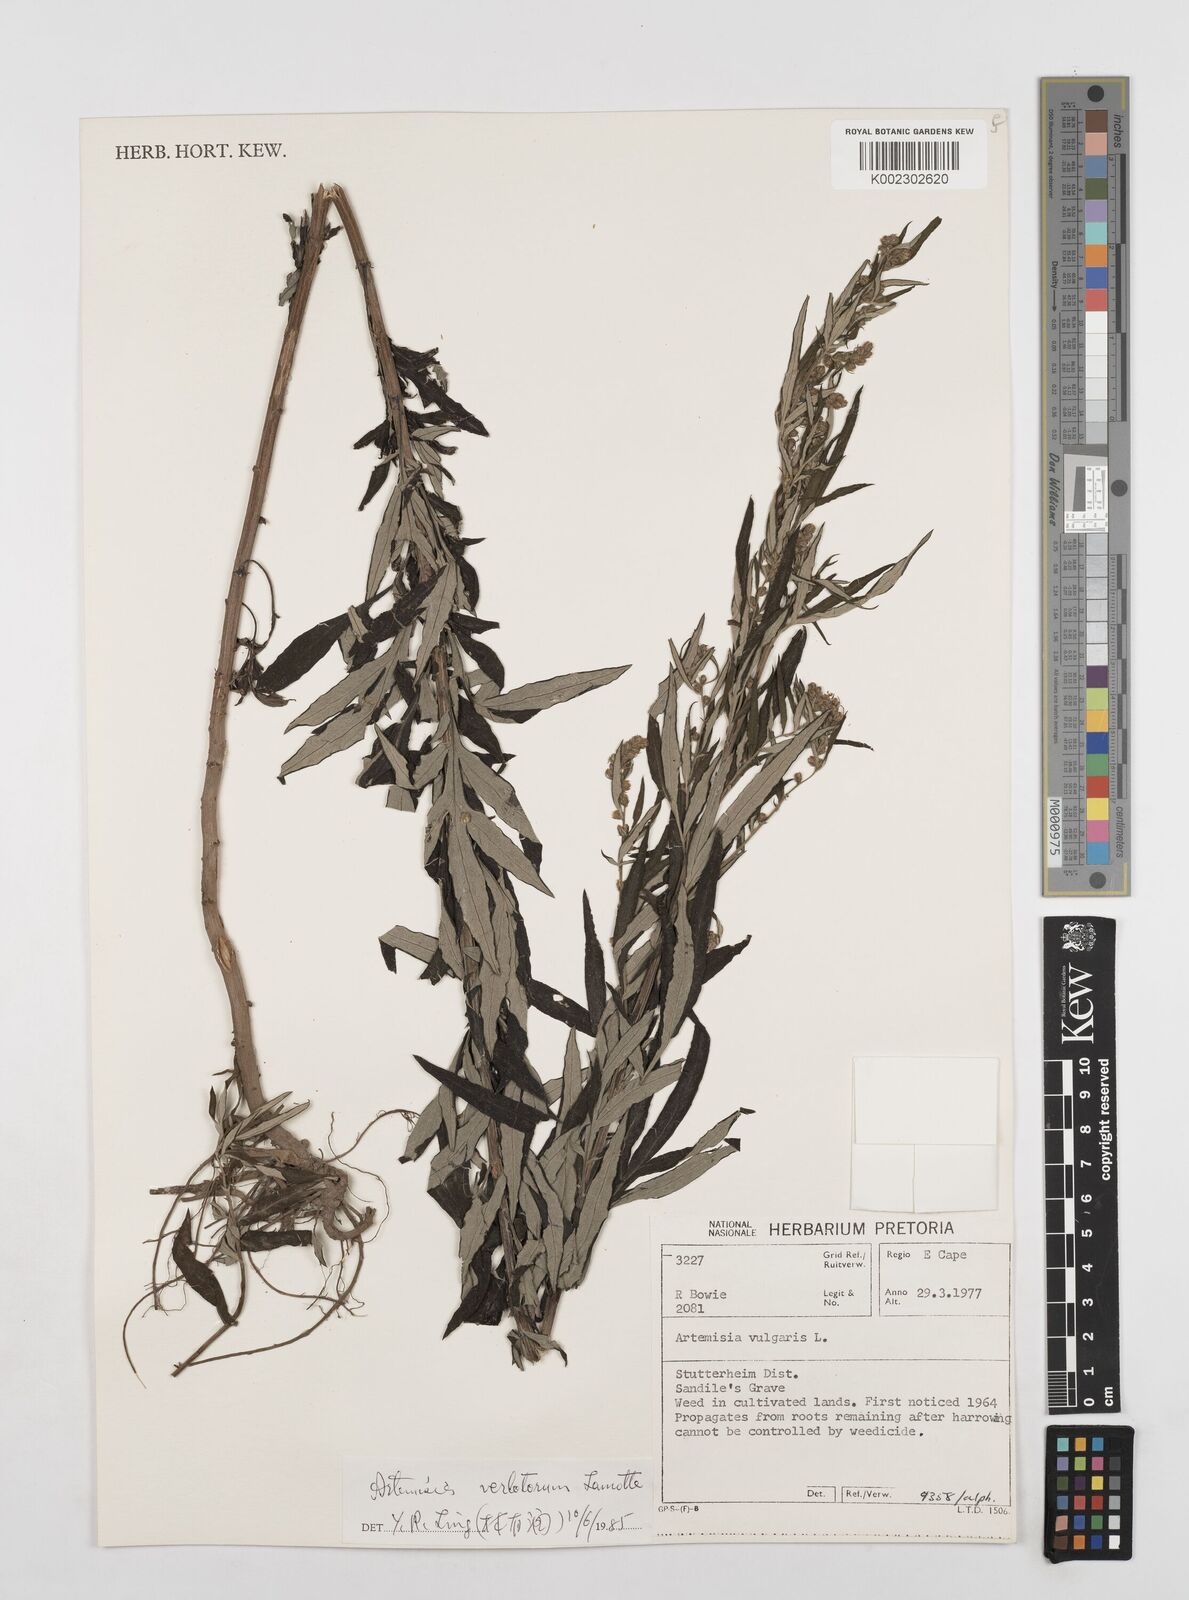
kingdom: Plantae
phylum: Tracheophyta
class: Magnoliopsida
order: Asterales
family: Asteraceae
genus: Artemisia
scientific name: Artemisia vulgaris
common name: Mugwort
